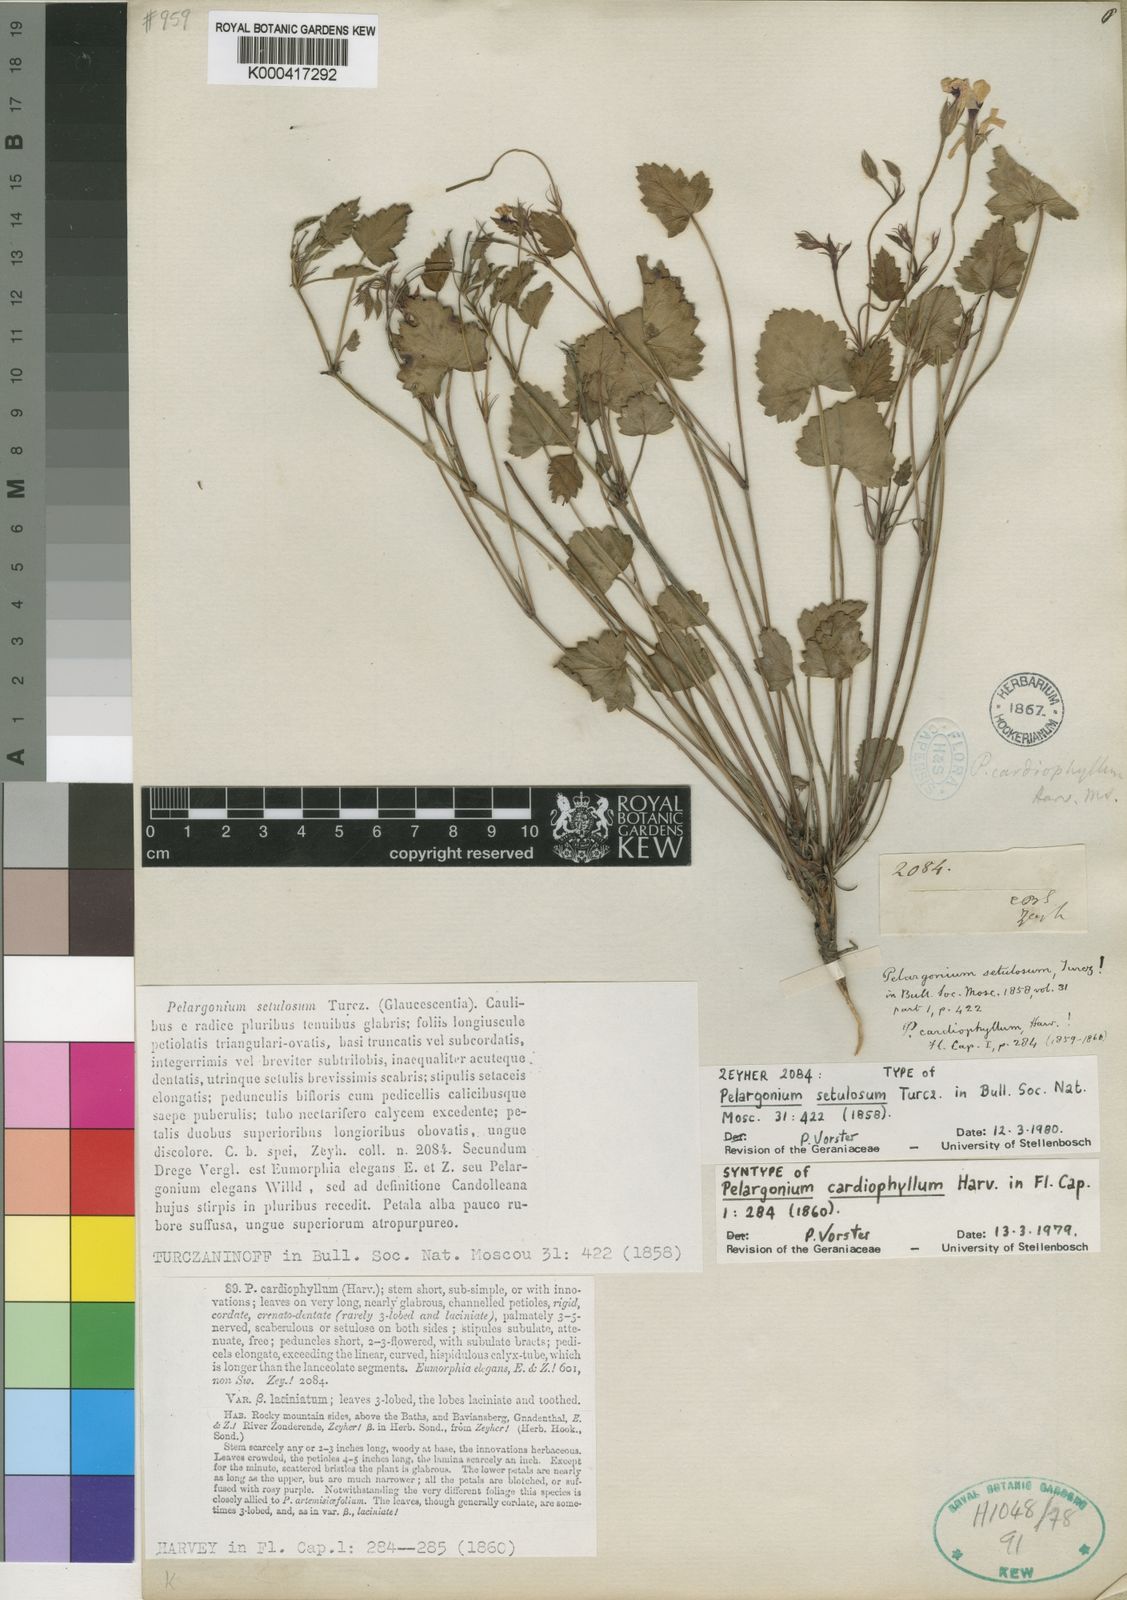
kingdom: Plantae
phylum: Tracheophyta
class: Magnoliopsida
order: Geraniales
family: Geraniaceae
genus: Pelargonium
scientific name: Pelargonium setulosum
